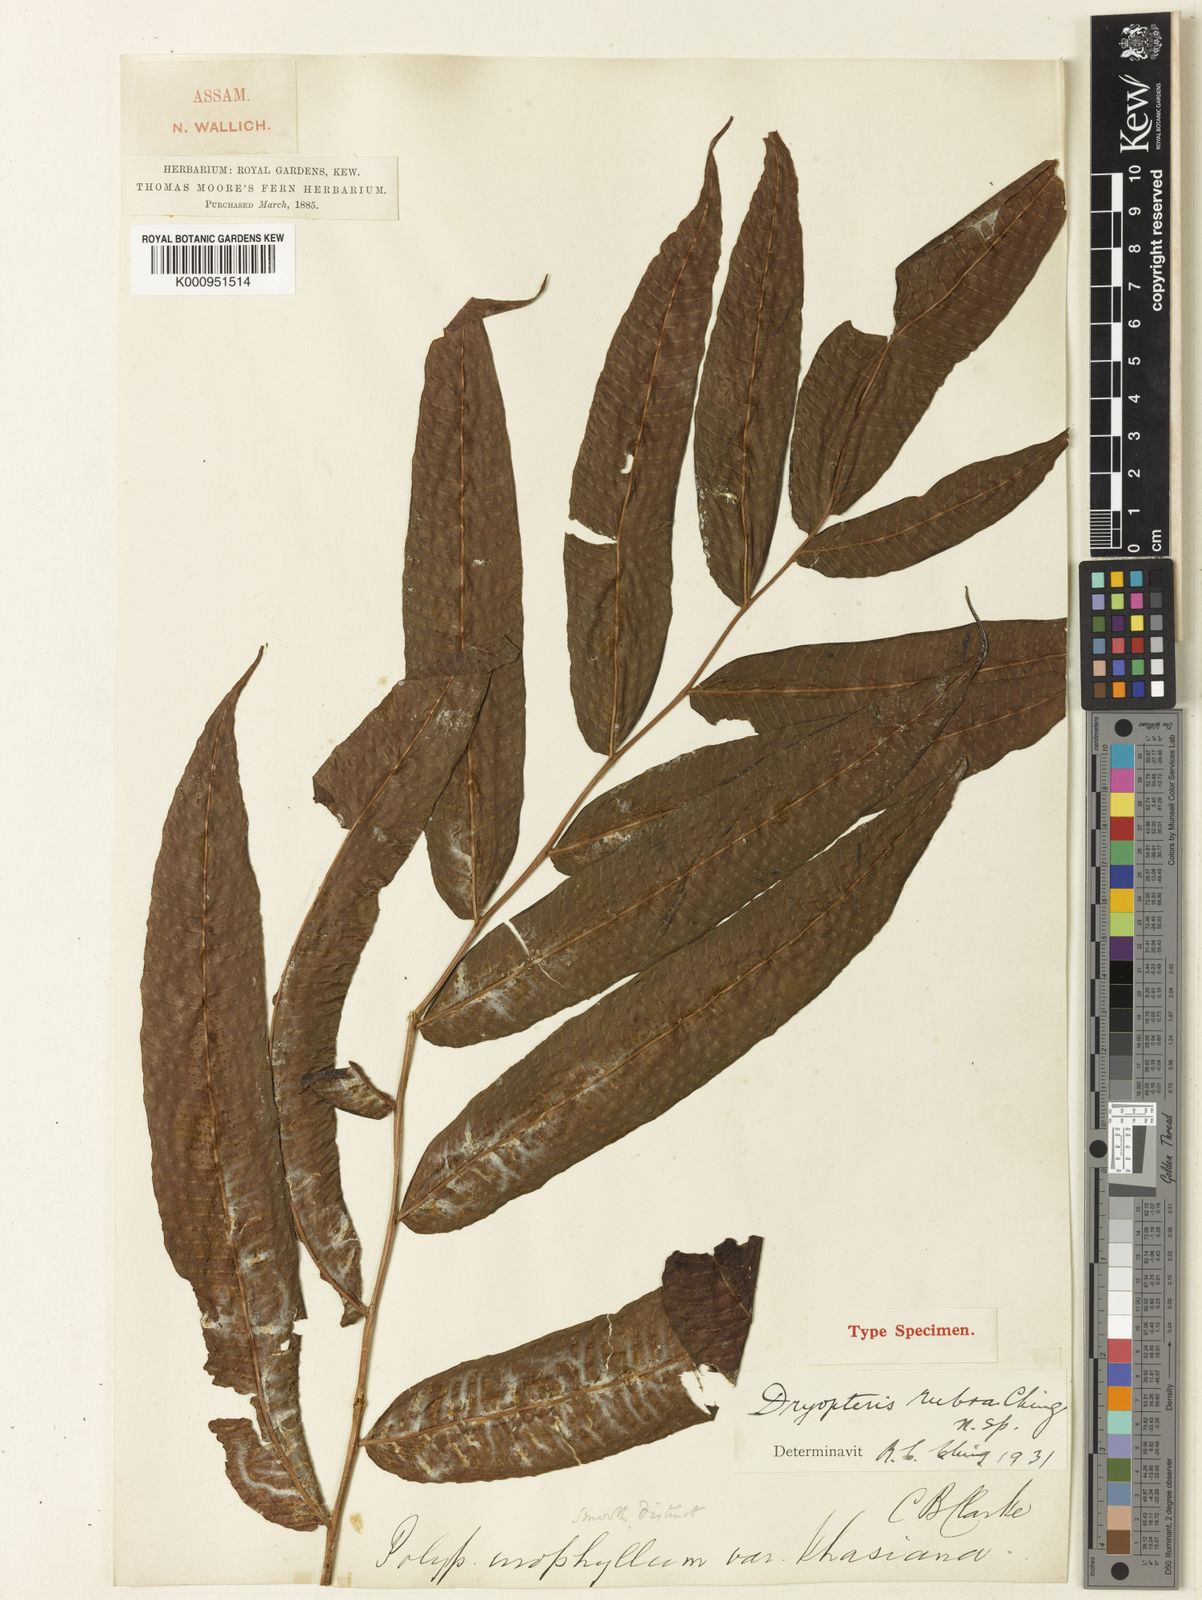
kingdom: Plantae
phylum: Tracheophyta
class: Polypodiopsida
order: Polypodiales
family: Thelypteridaceae
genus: Menisciopsis
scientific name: Menisciopsis lakhimpurensis
